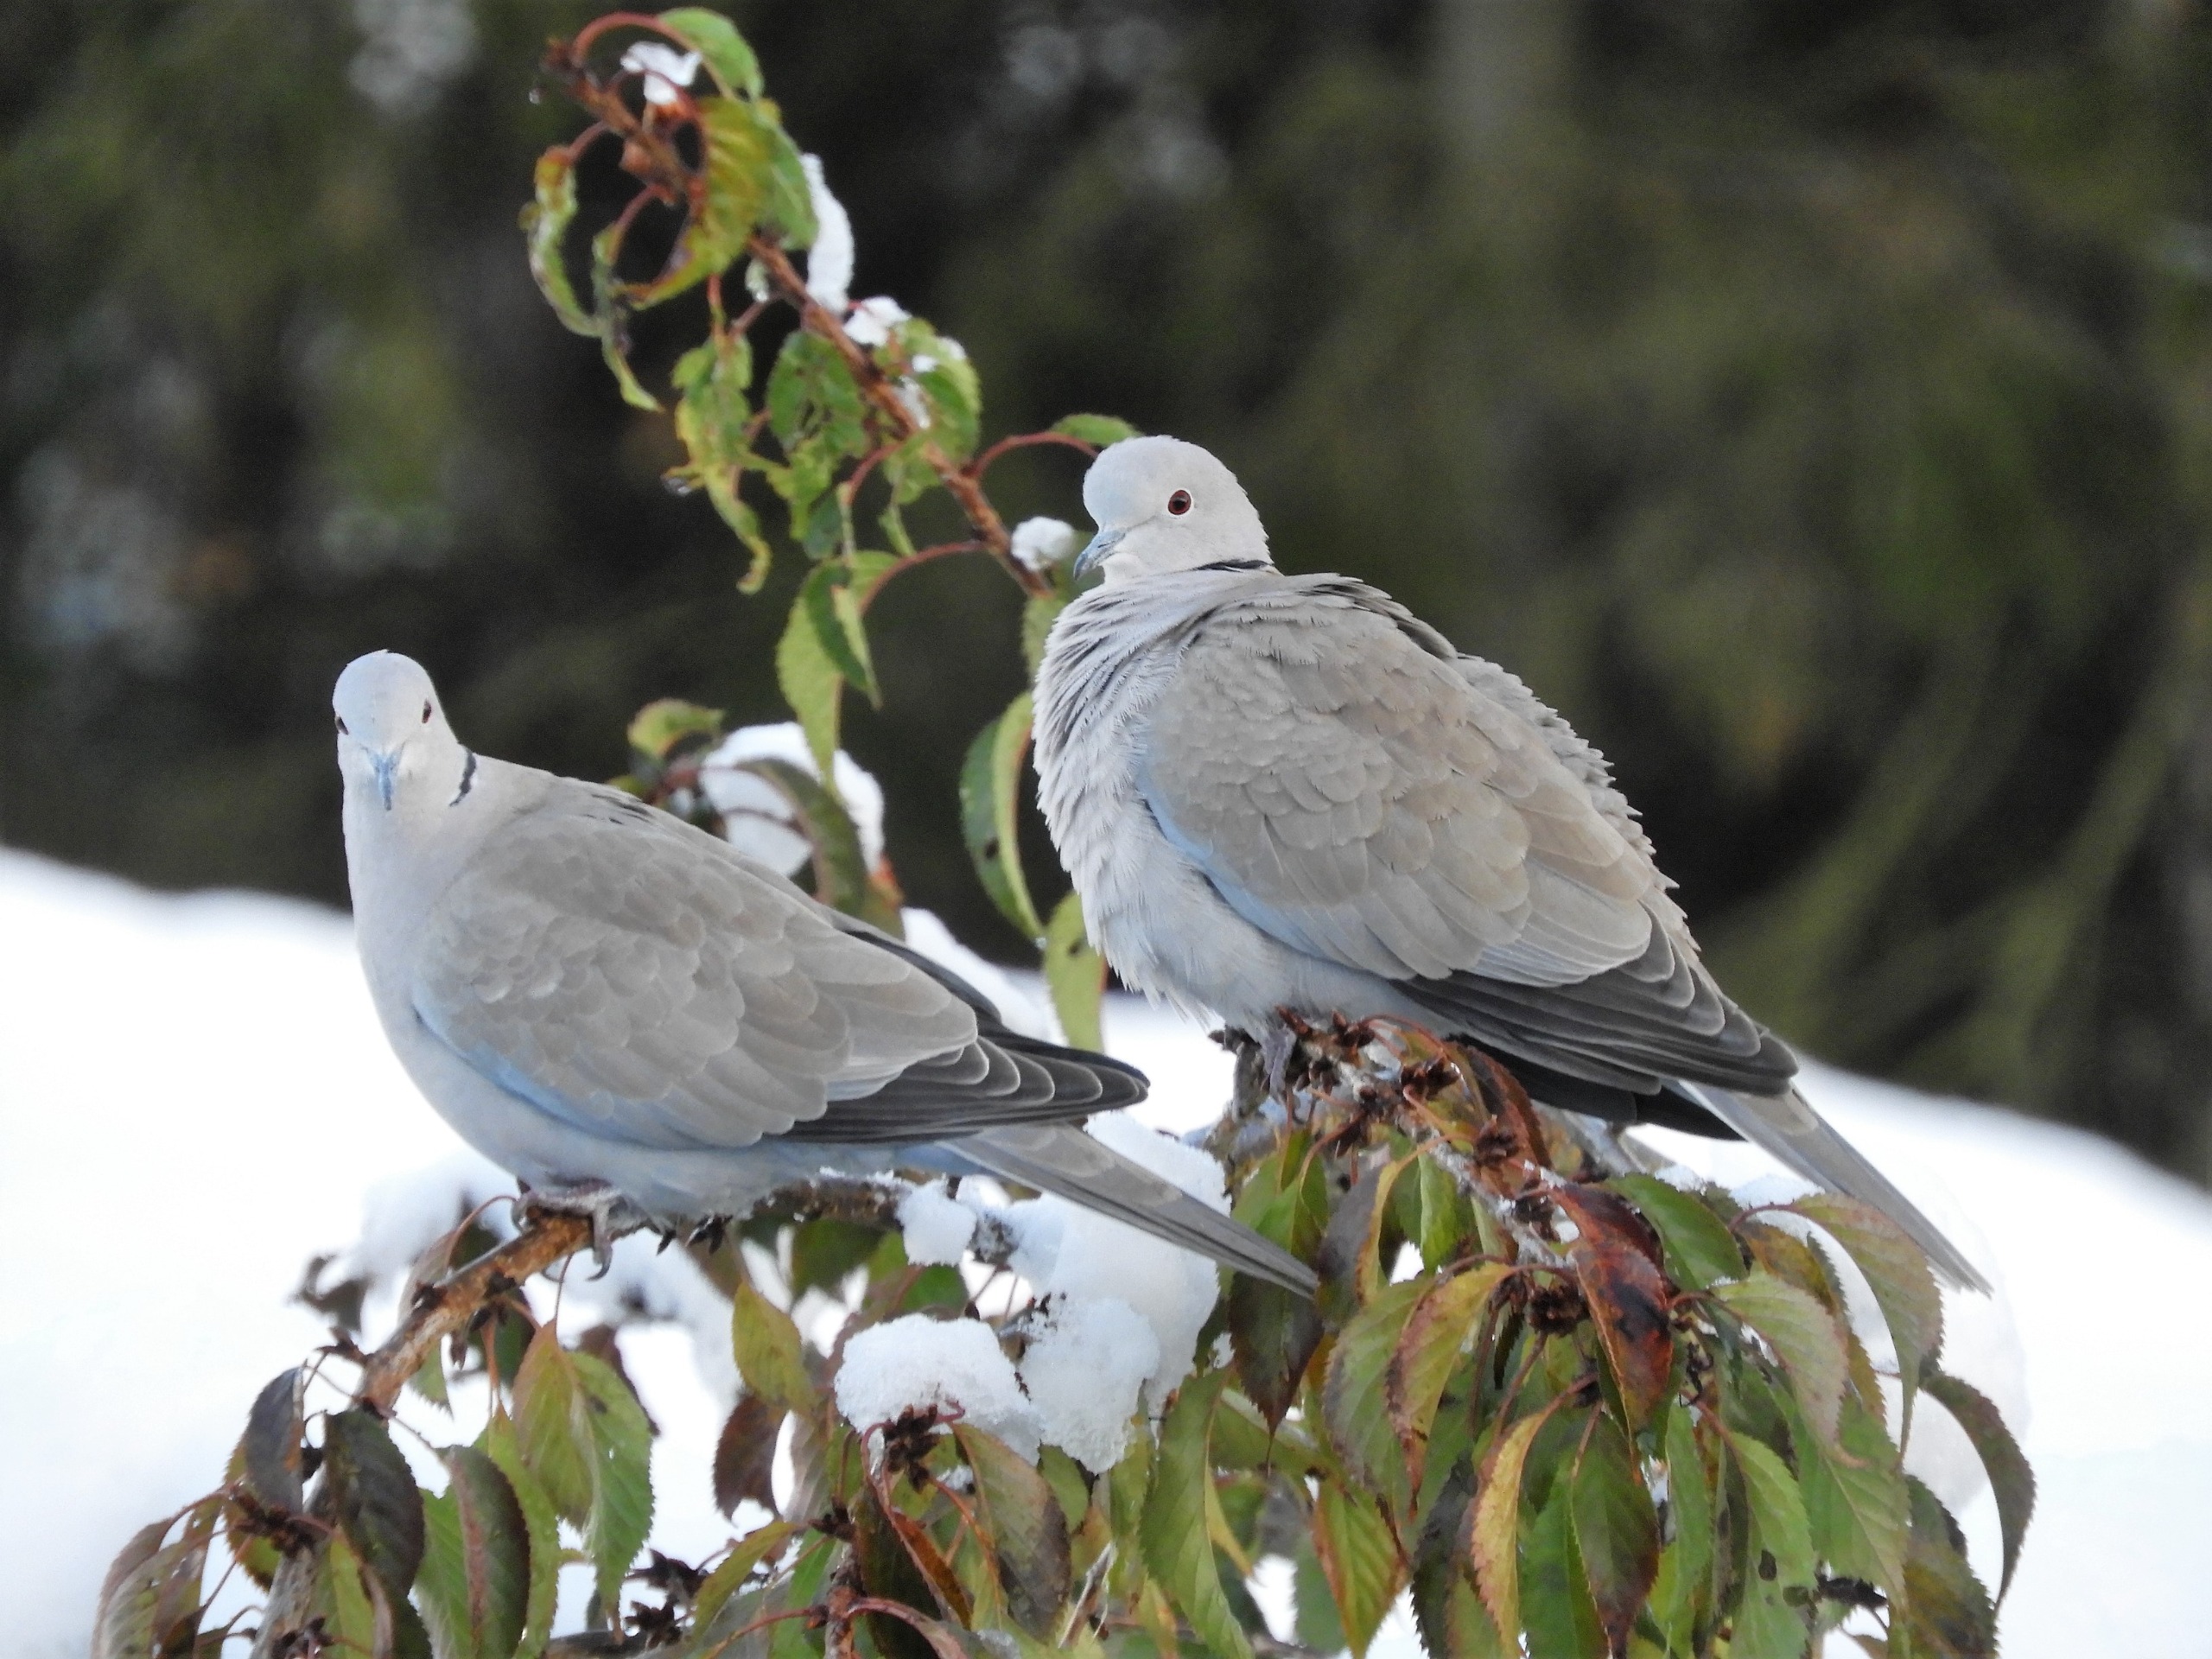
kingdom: Animalia
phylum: Chordata
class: Aves
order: Columbiformes
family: Columbidae
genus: Streptopelia
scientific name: Streptopelia decaocto
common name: Tyrkerdue
